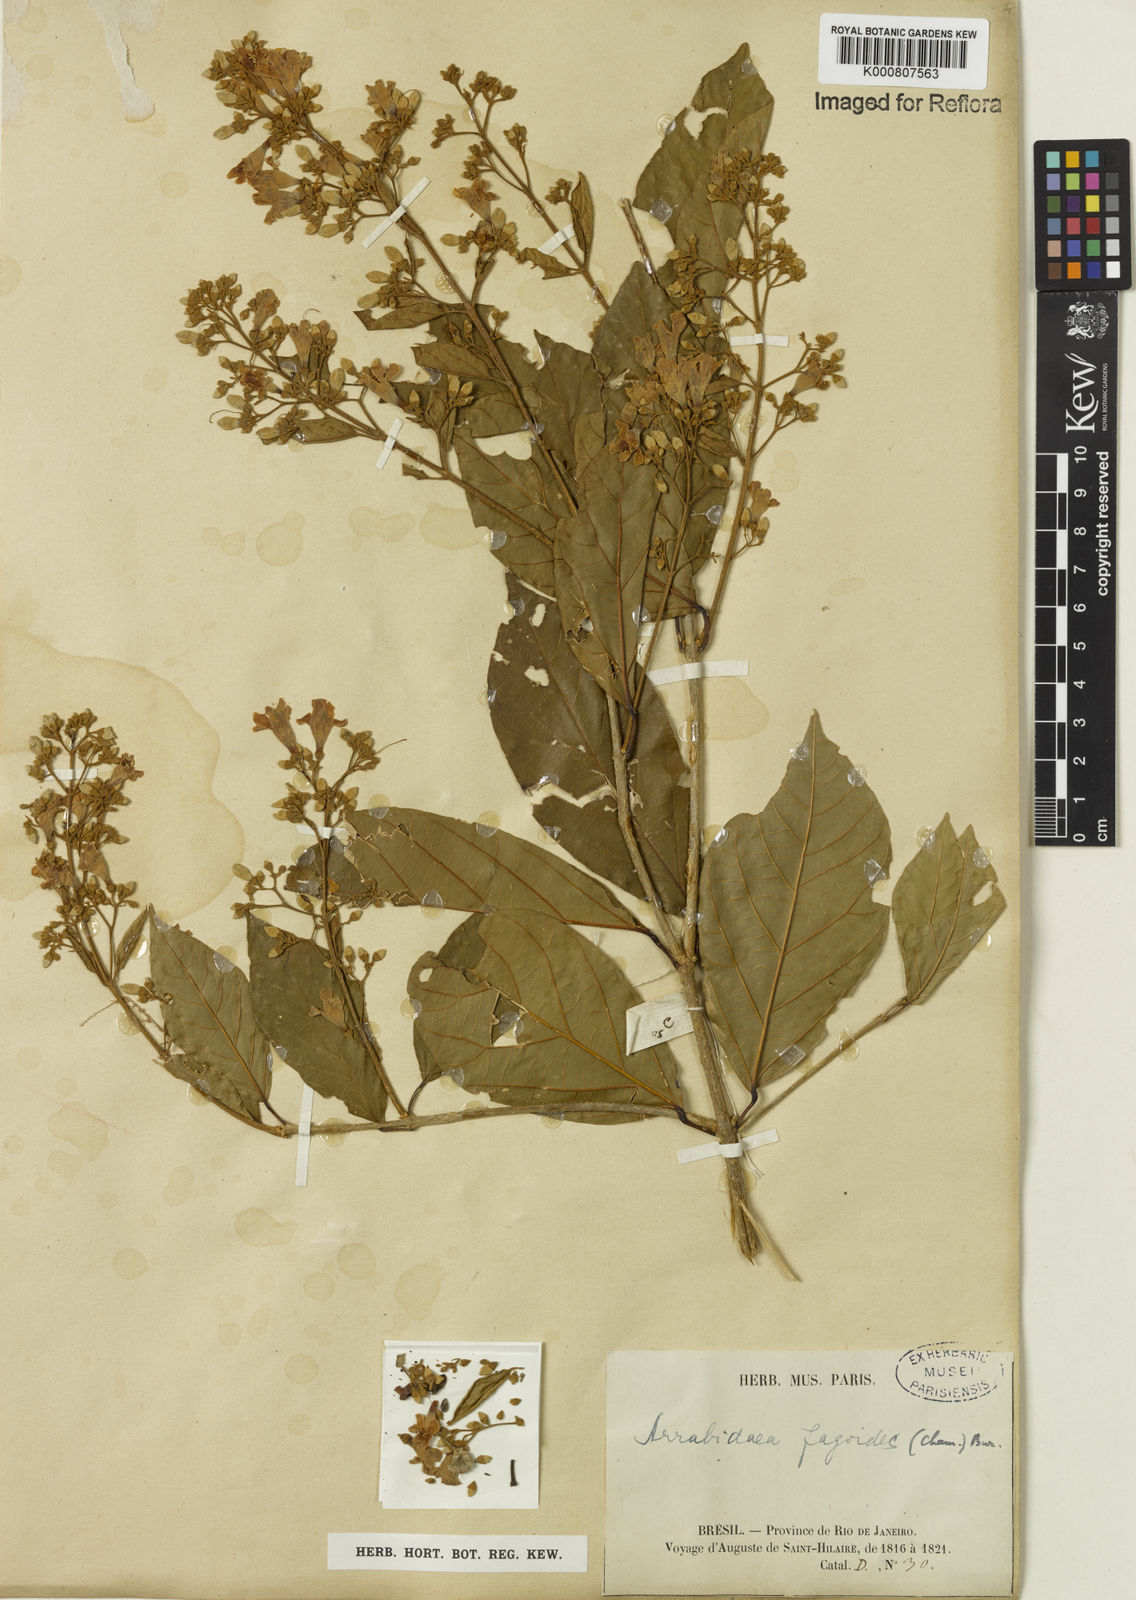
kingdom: Plantae
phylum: Tracheophyta
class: Magnoliopsida
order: Lamiales
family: Bignoniaceae
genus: Fridericia
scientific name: Fridericia fagoides
